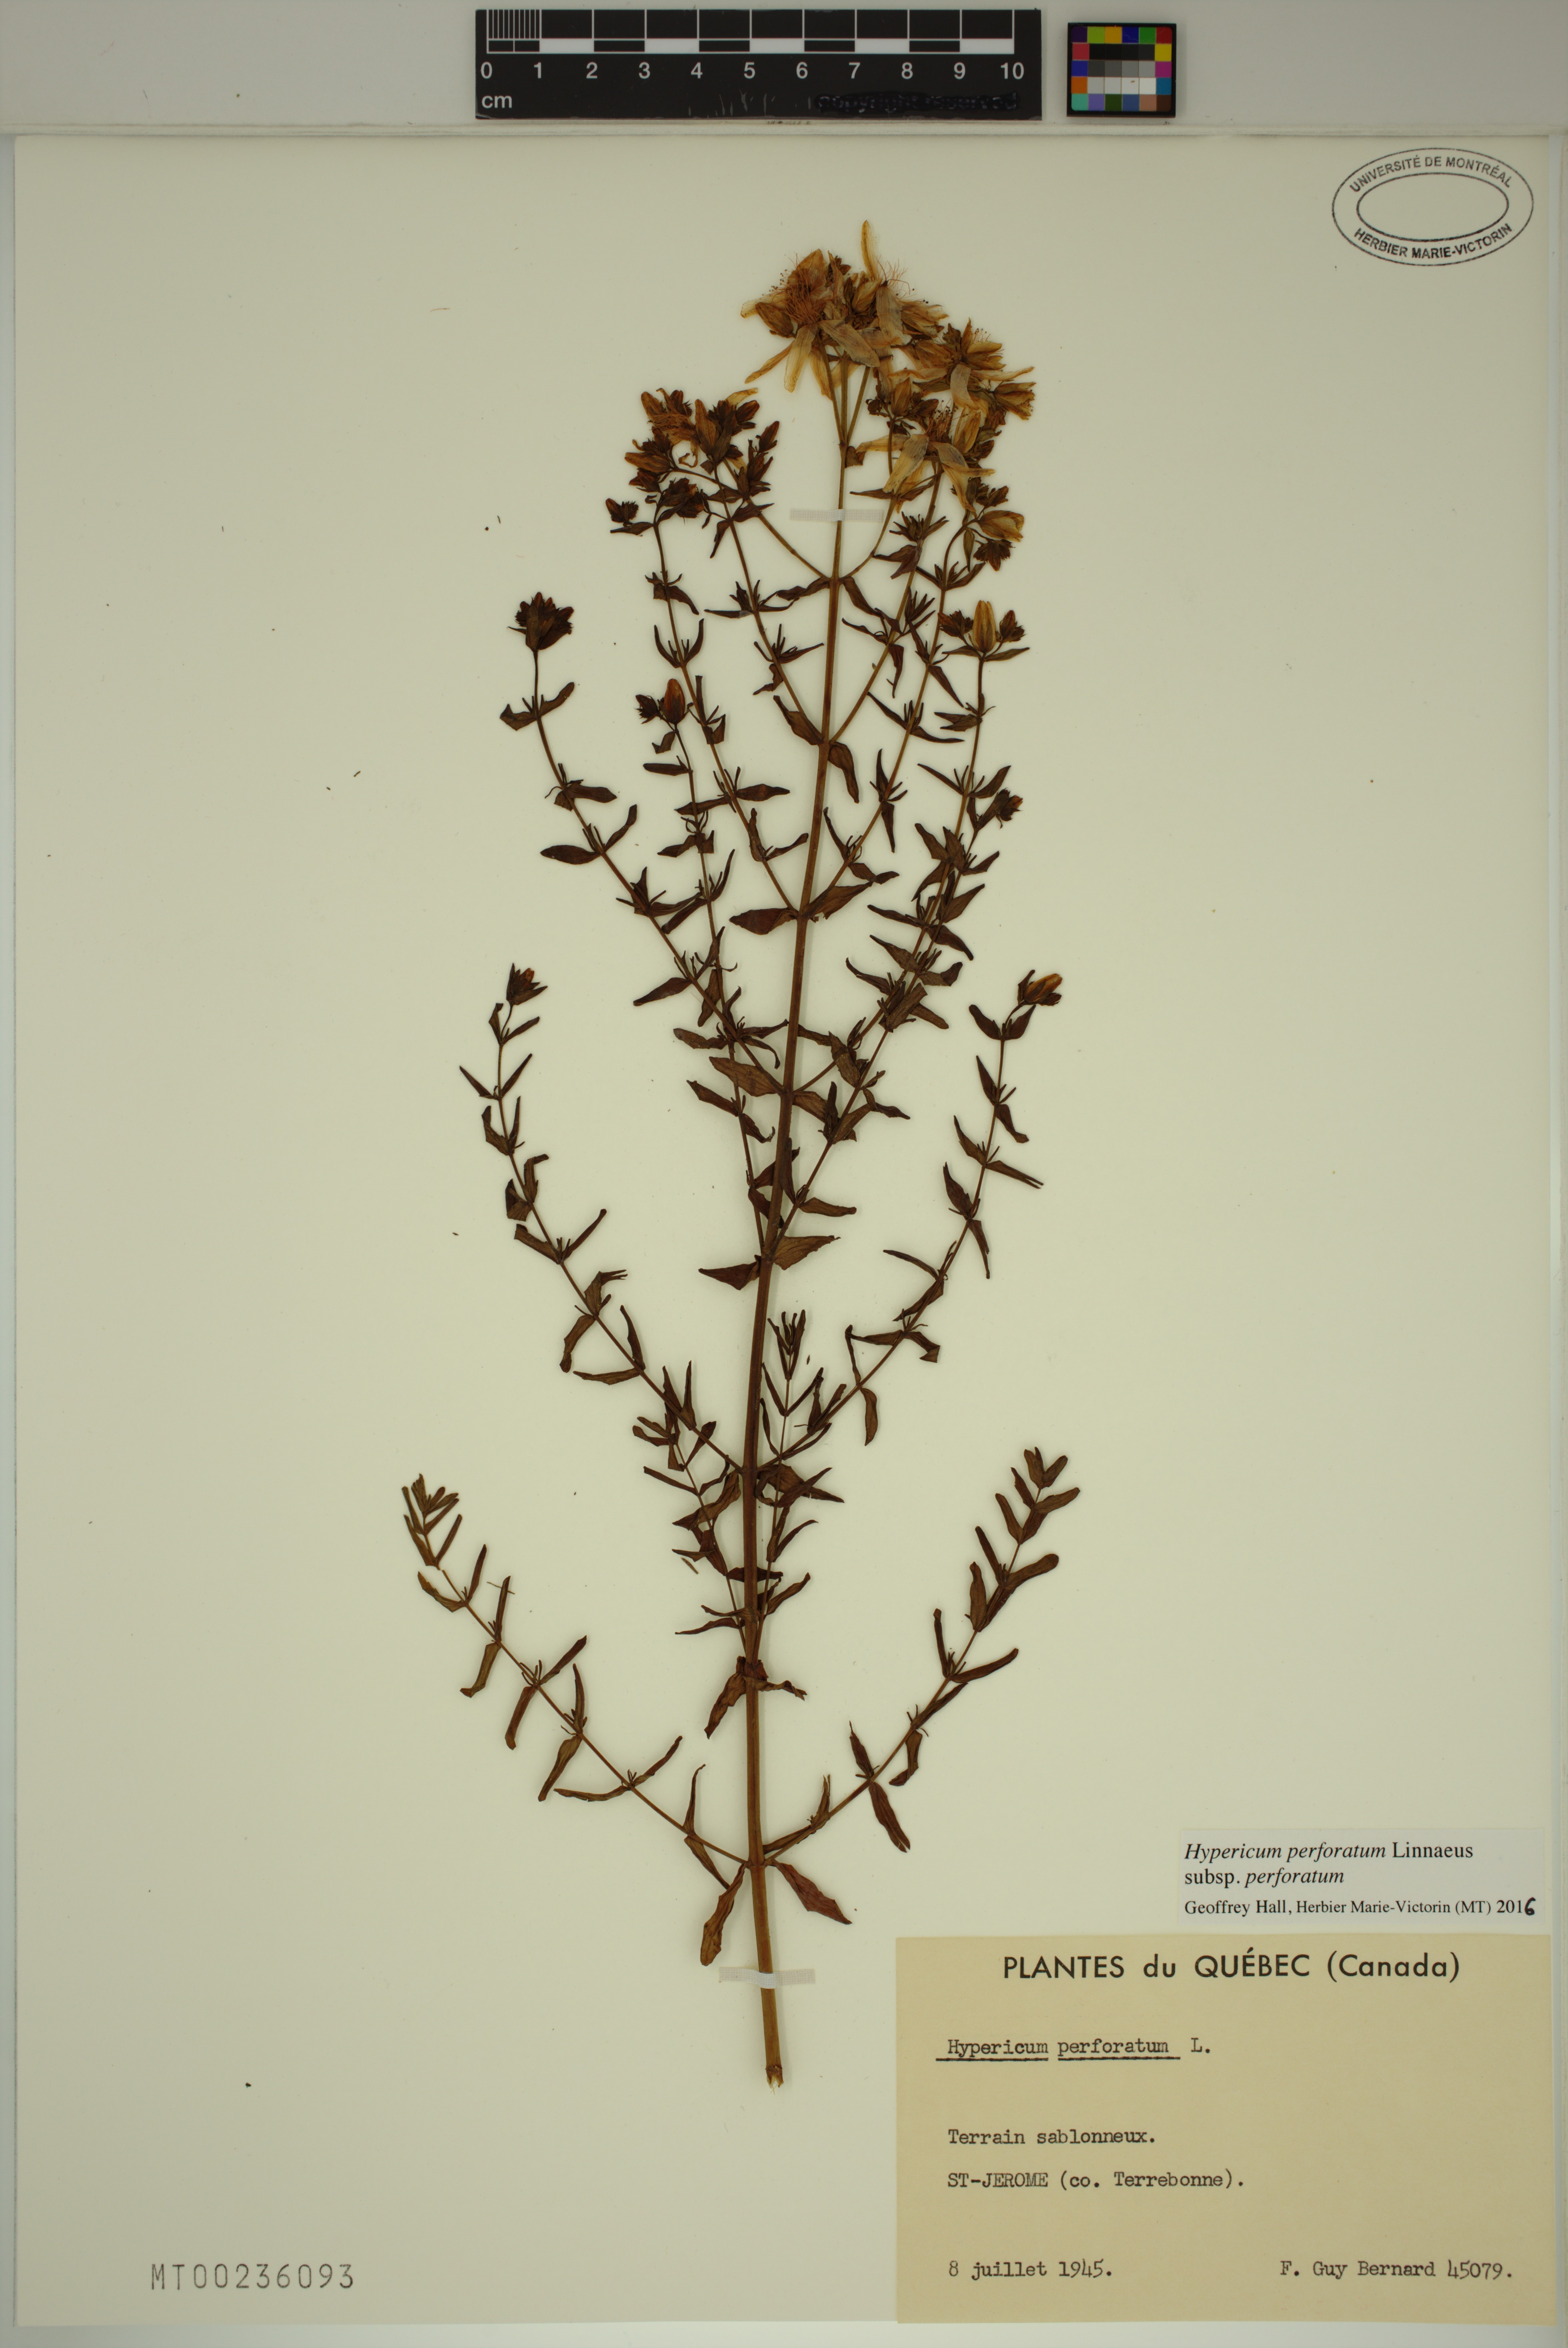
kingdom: Plantae
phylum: Tracheophyta
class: Magnoliopsida
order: Malpighiales
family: Hypericaceae
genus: Hypericum
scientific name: Hypericum perforatum
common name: Common st. johnswort
